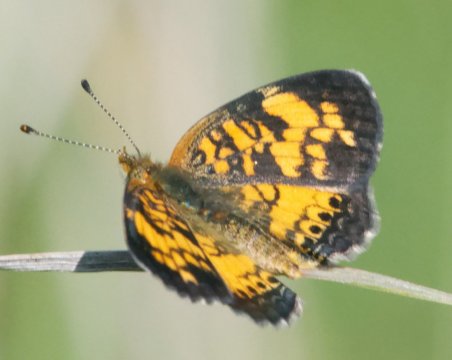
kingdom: Animalia
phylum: Arthropoda
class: Insecta
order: Lepidoptera
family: Nymphalidae
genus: Phyciodes
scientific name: Phyciodes
